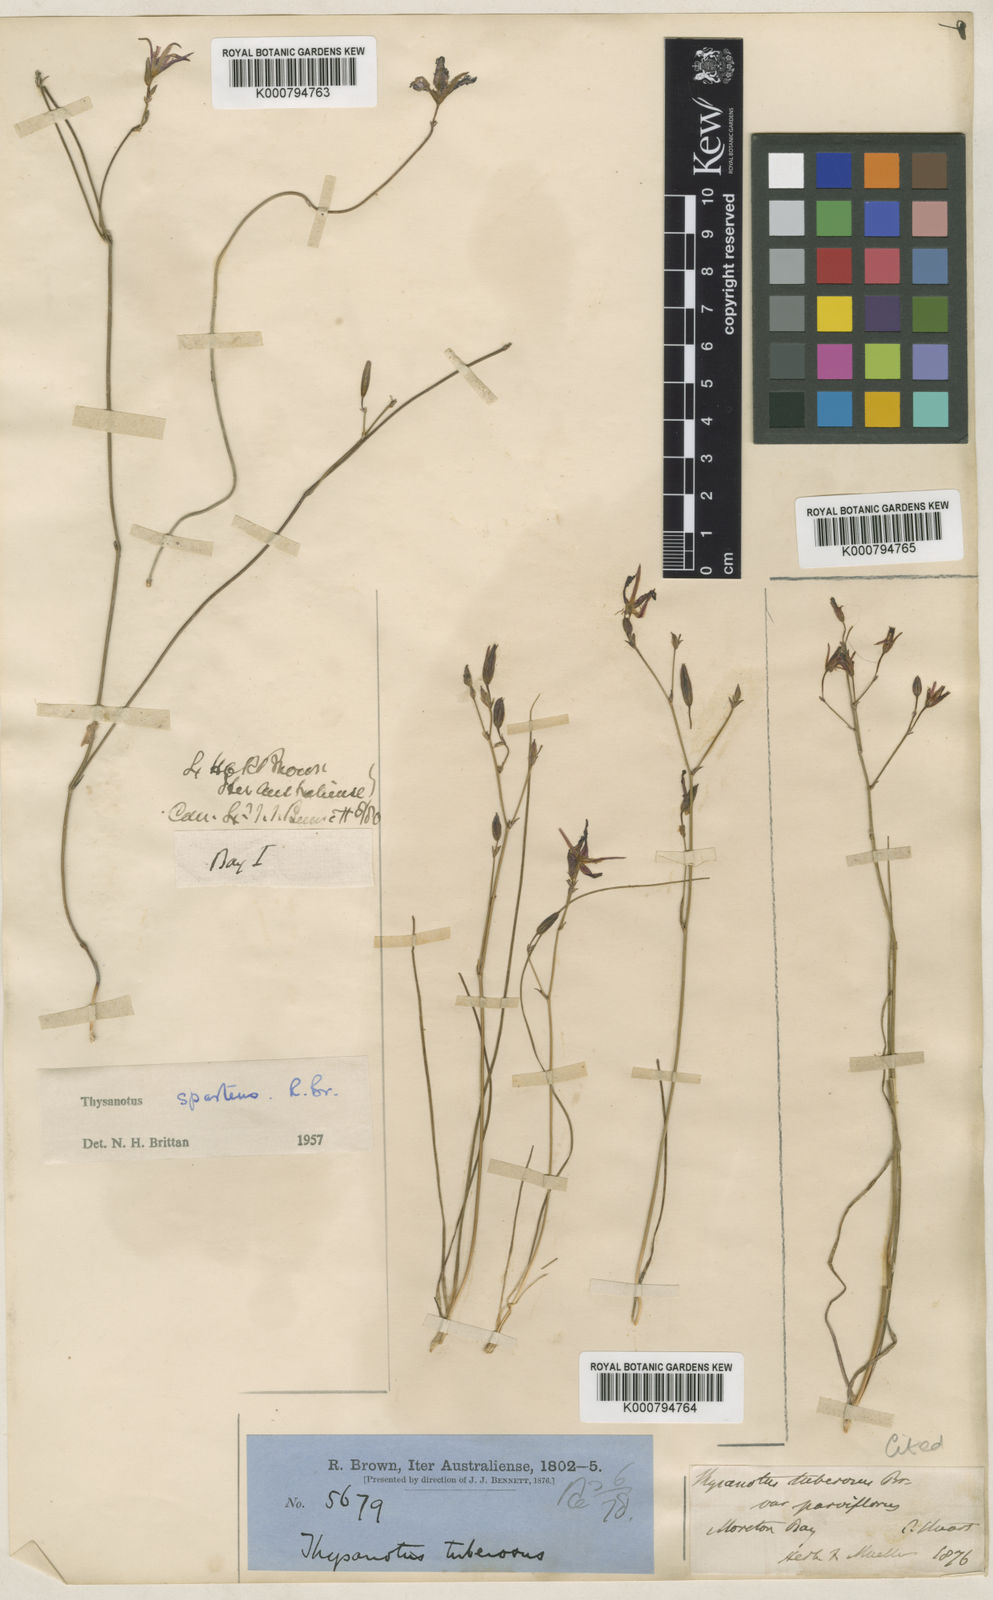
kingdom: Plantae
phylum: Tracheophyta
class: Liliopsida
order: Asparagales
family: Asparagaceae
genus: Thysanotus
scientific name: Thysanotus tuberosus
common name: Common fringed-lily
